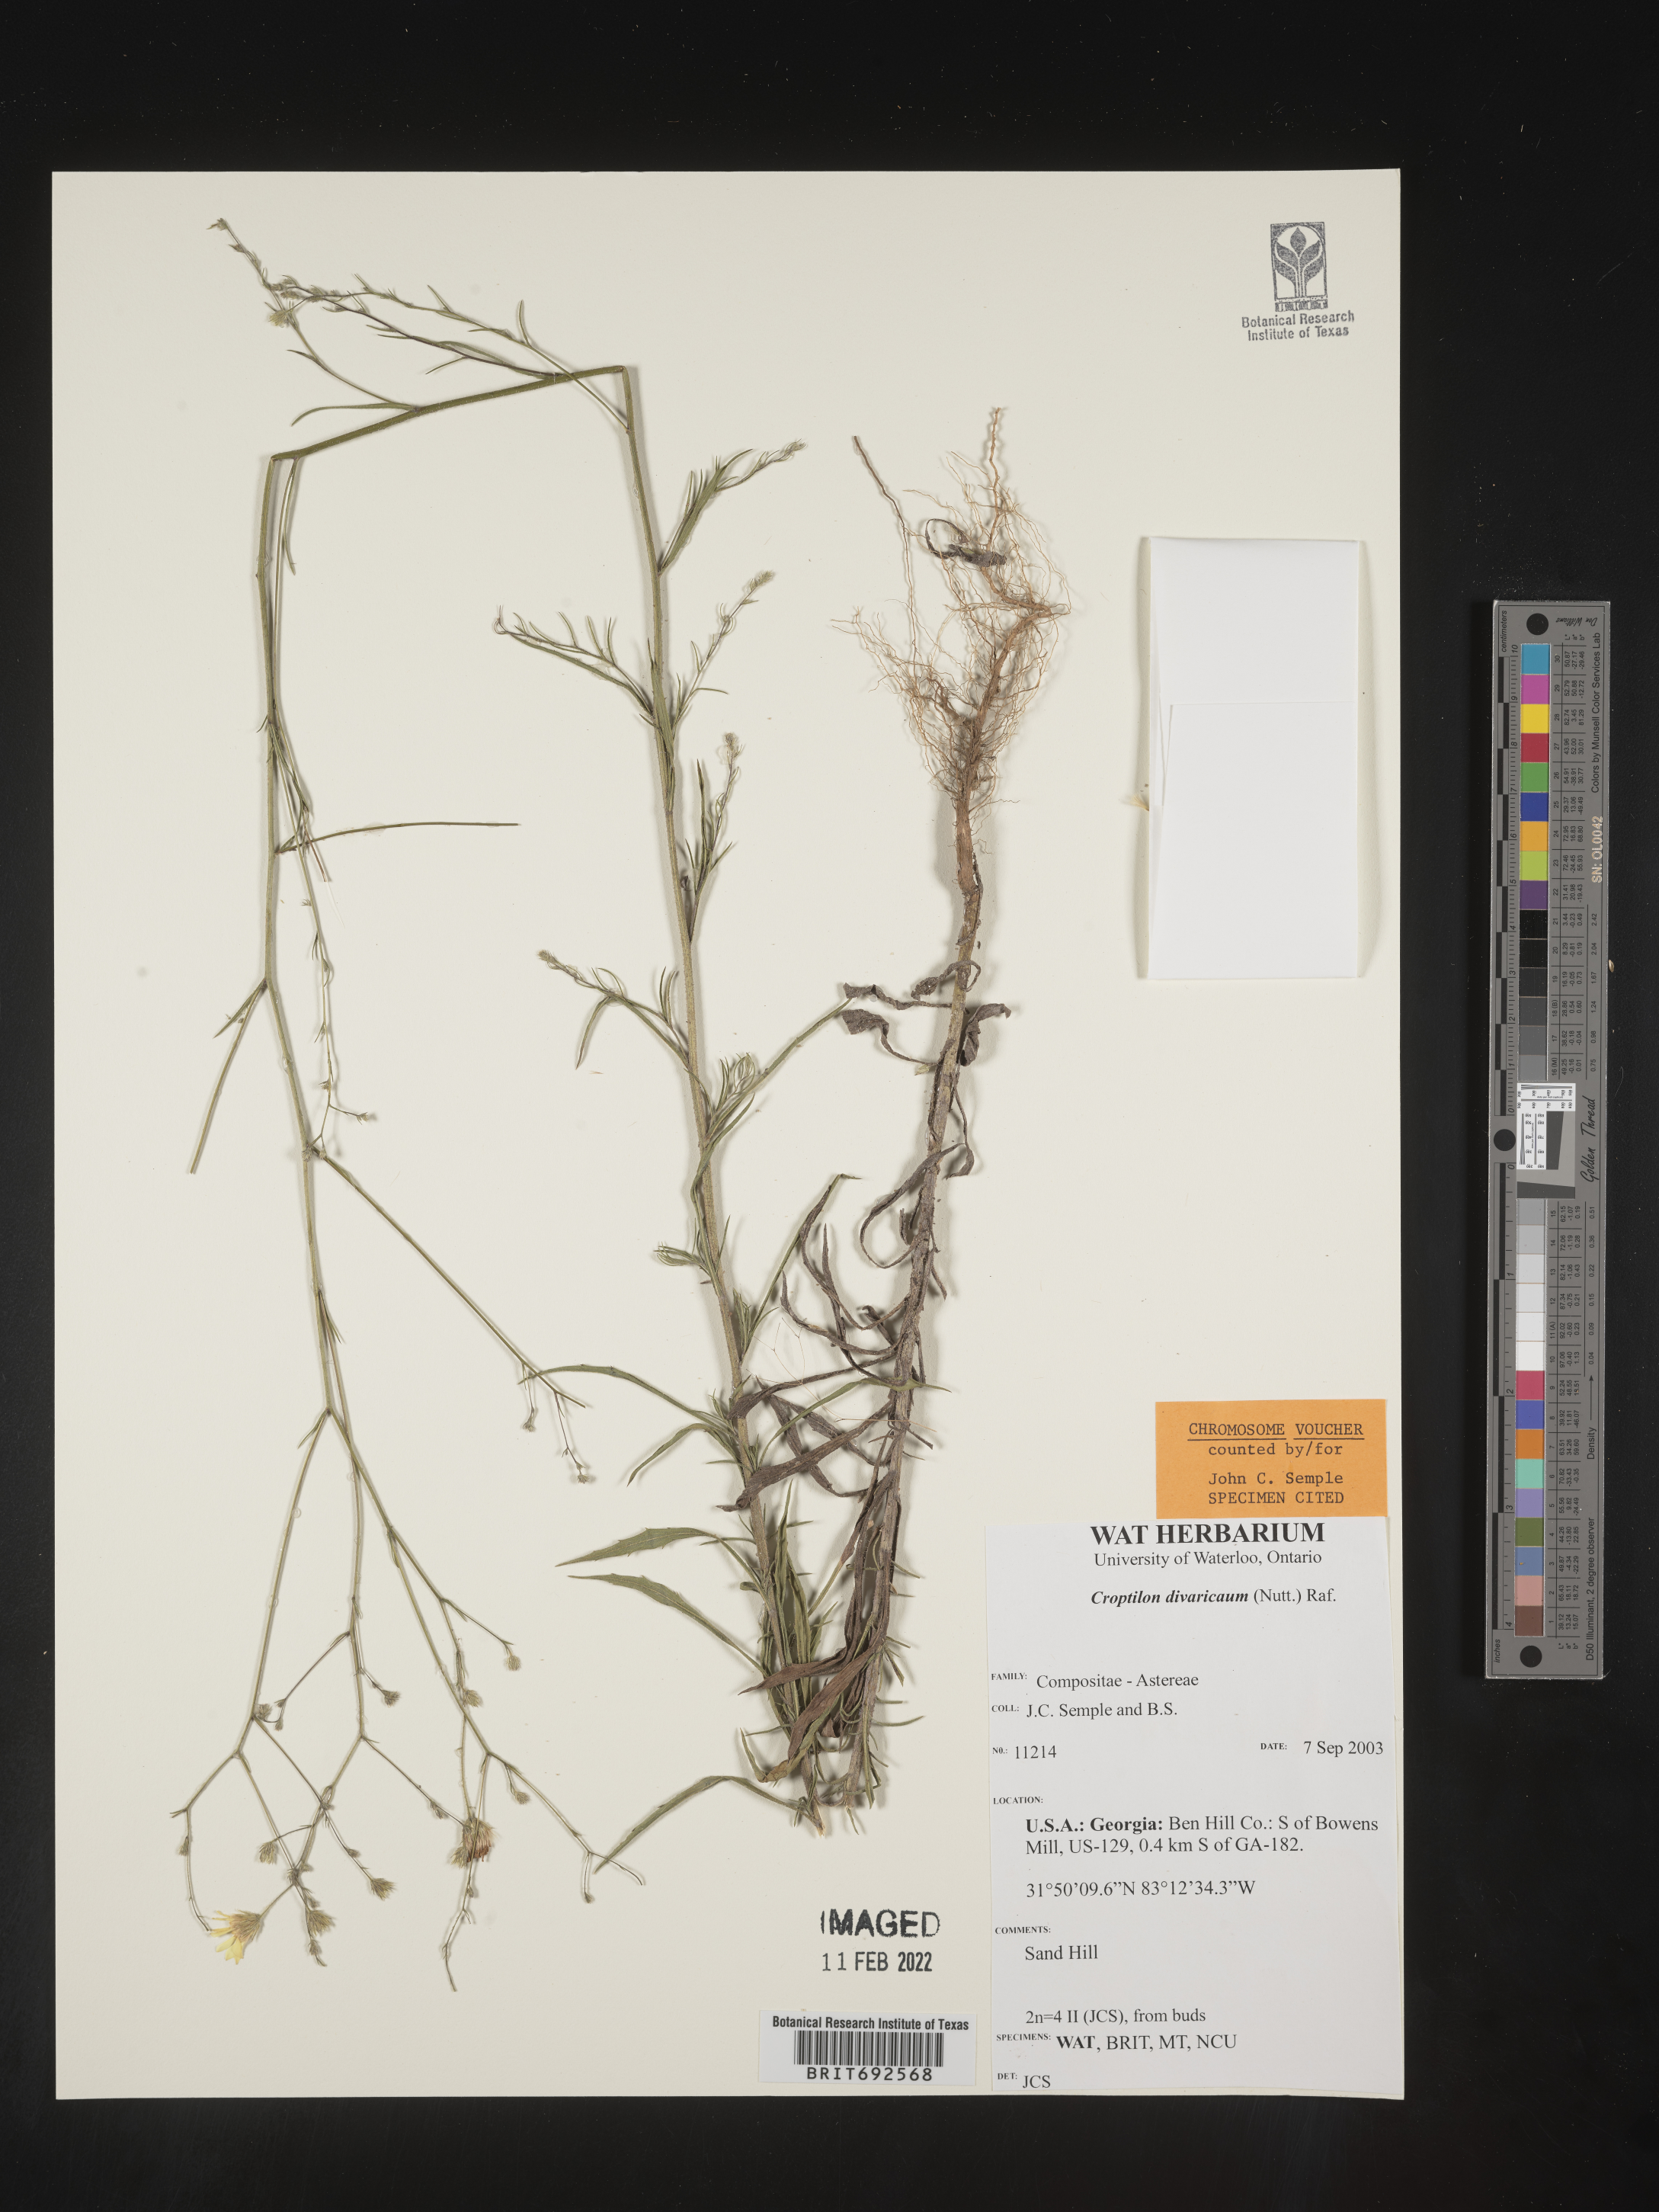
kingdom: Plantae
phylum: Tracheophyta
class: Magnoliopsida
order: Asterales
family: Asteraceae
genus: Croptilon
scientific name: Croptilon divaricatum
